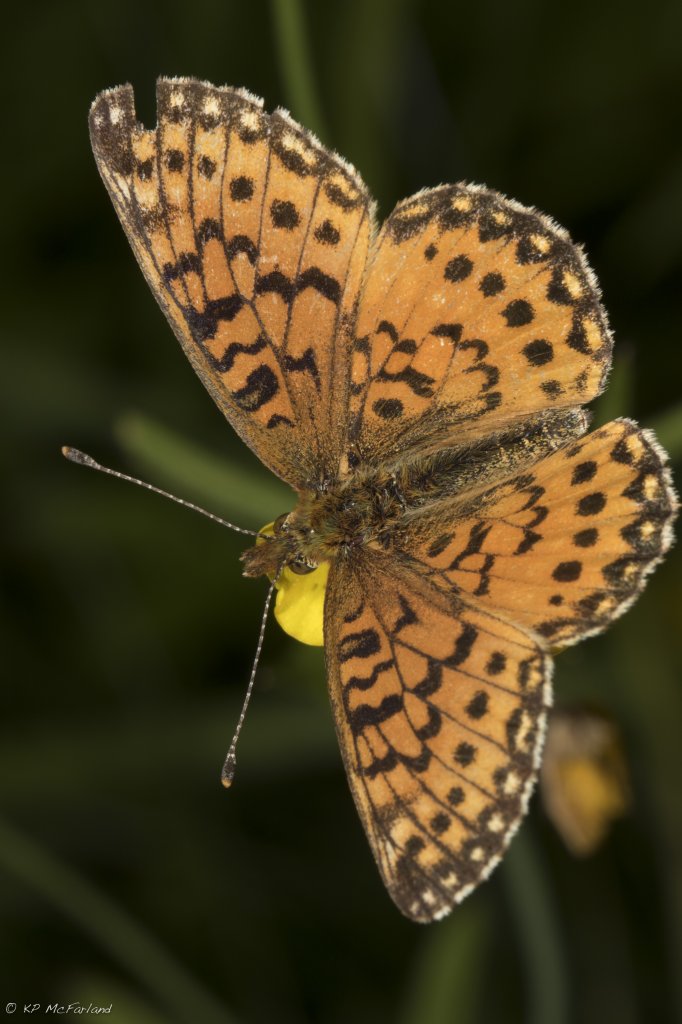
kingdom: Animalia
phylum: Arthropoda
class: Insecta
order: Lepidoptera
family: Nymphalidae
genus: Boloria
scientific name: Boloria selene
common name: Silver-bordered Fritillary
